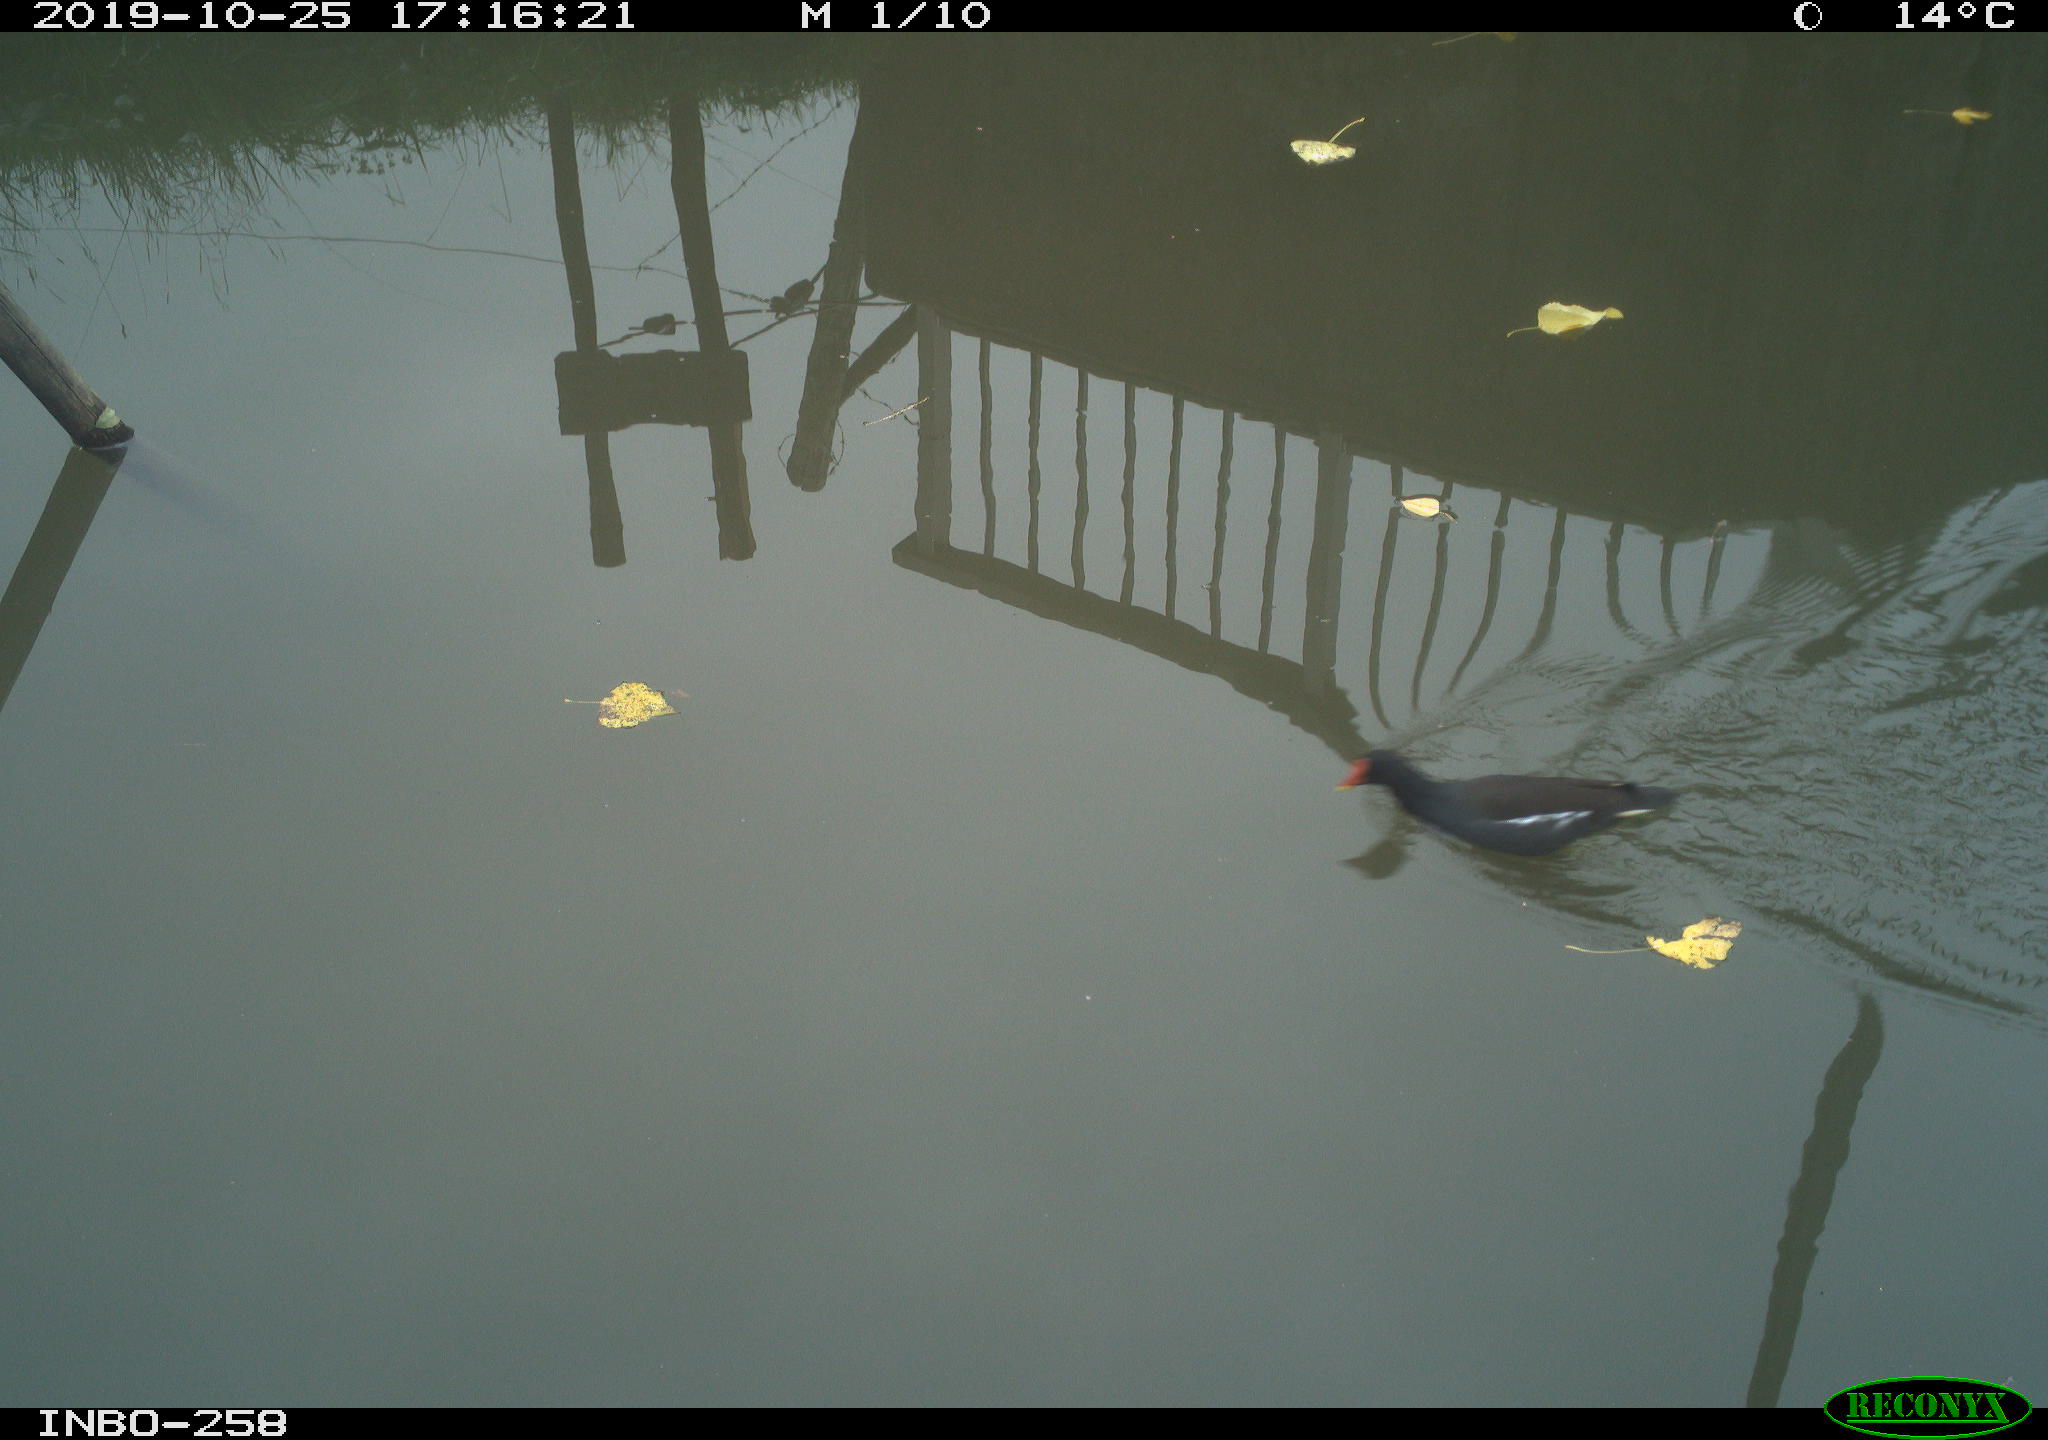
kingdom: Animalia
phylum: Chordata
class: Aves
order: Gruiformes
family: Rallidae
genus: Gallinula
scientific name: Gallinula chloropus
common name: Common moorhen
